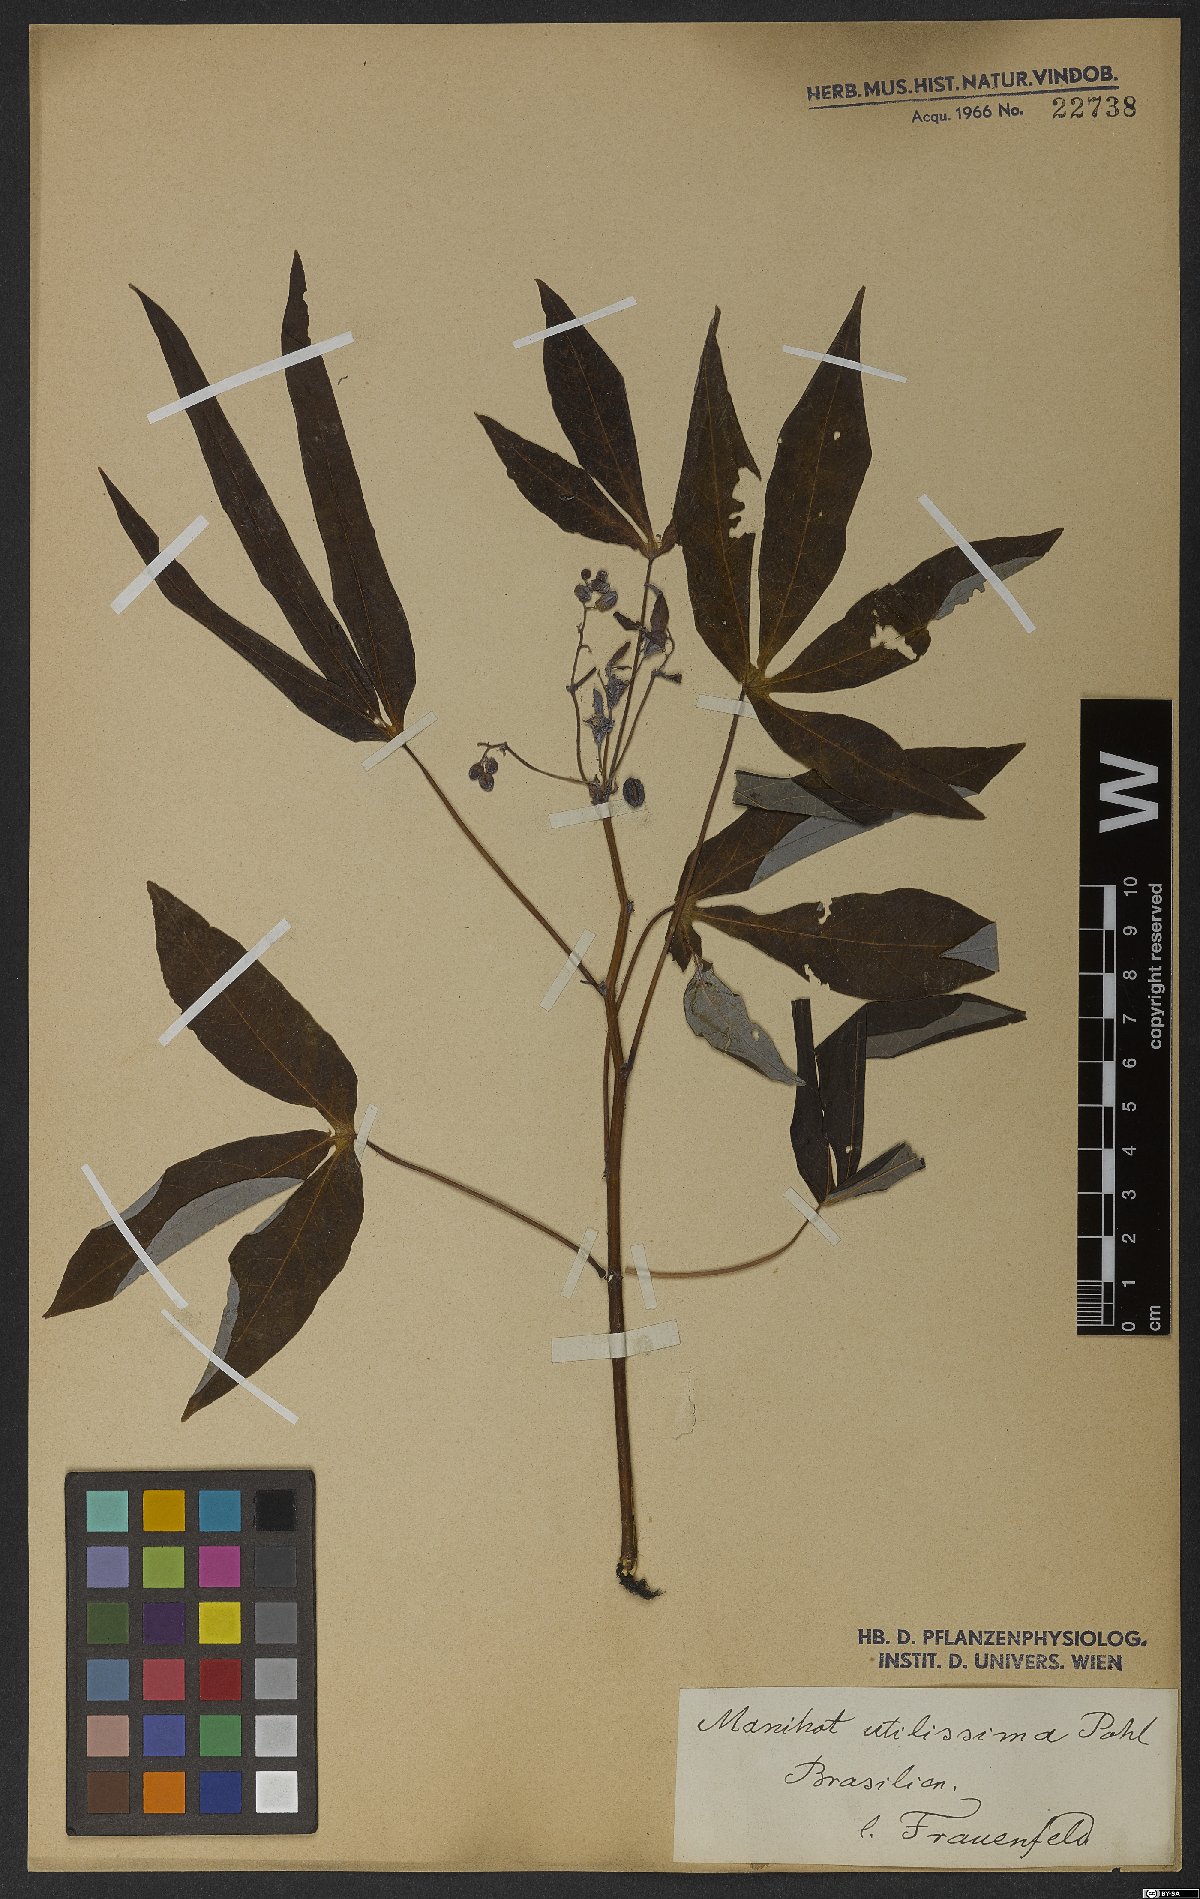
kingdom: Plantae
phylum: Tracheophyta
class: Magnoliopsida
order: Malpighiales
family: Euphorbiaceae
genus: Manihot
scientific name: Manihot esculenta
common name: Cassava
